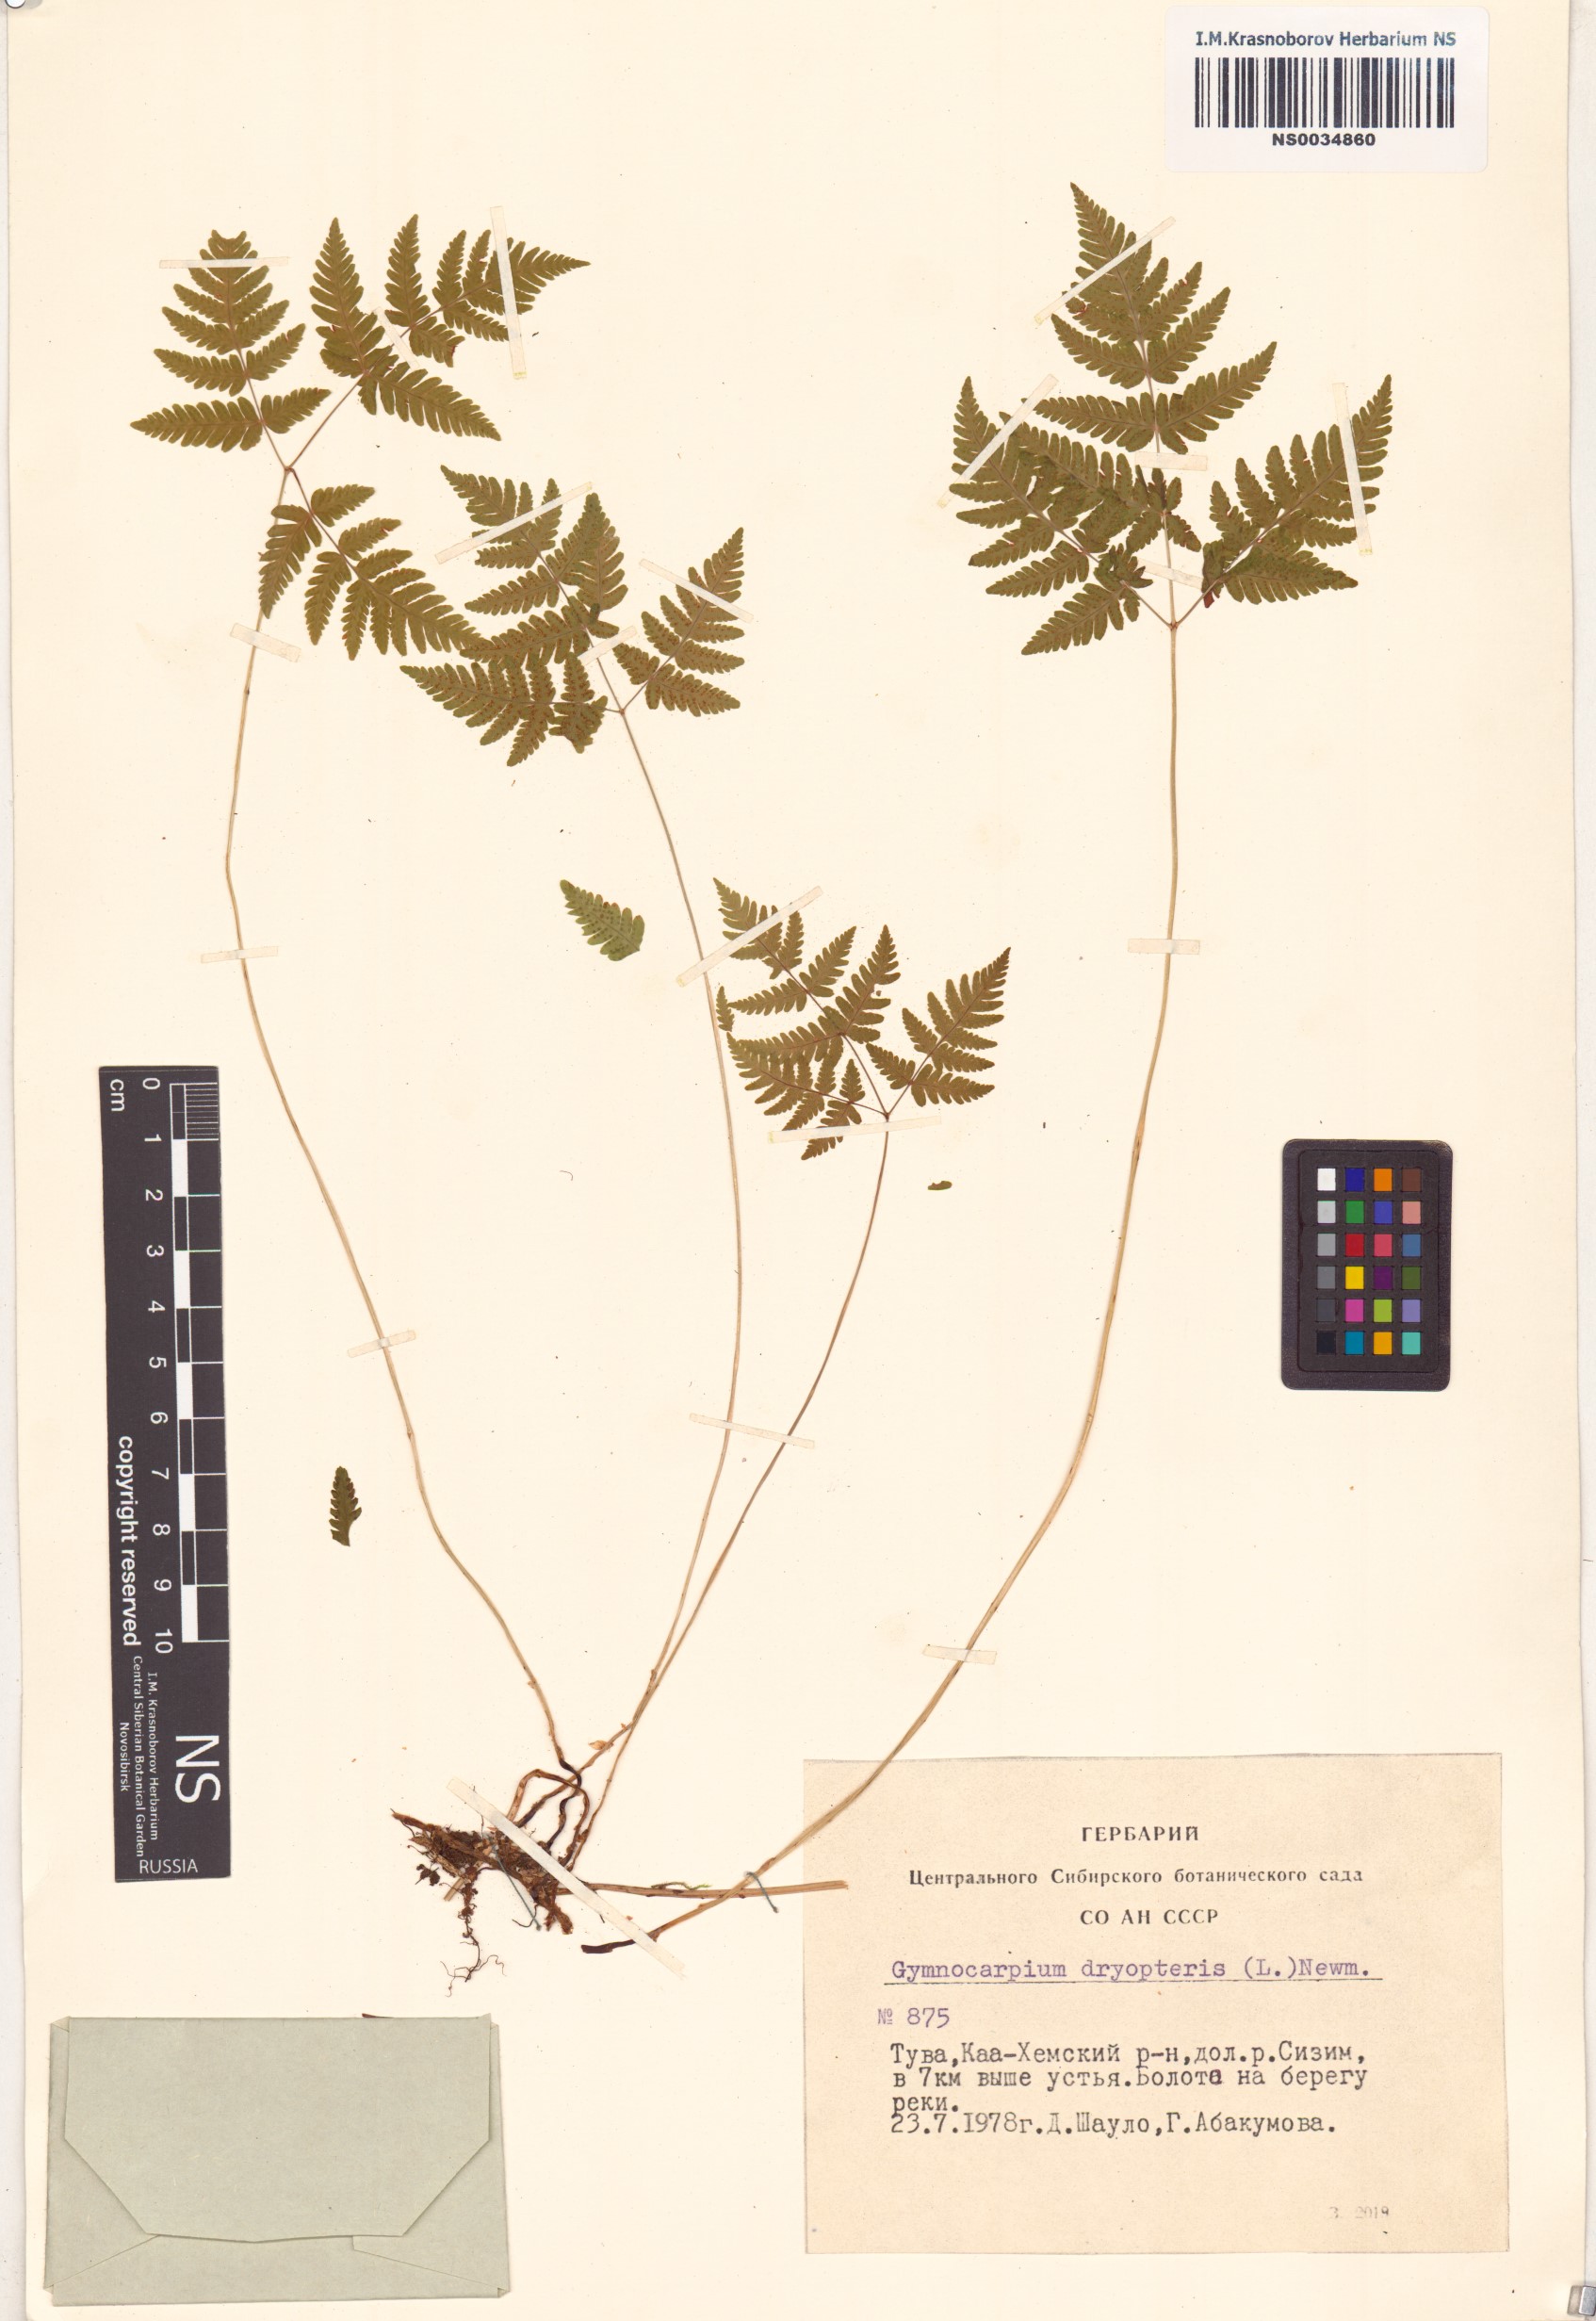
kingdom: Plantae
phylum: Tracheophyta
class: Polypodiopsida
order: Polypodiales
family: Cystopteridaceae
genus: Gymnocarpium
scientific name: Gymnocarpium dryopteris
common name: Oak fern
